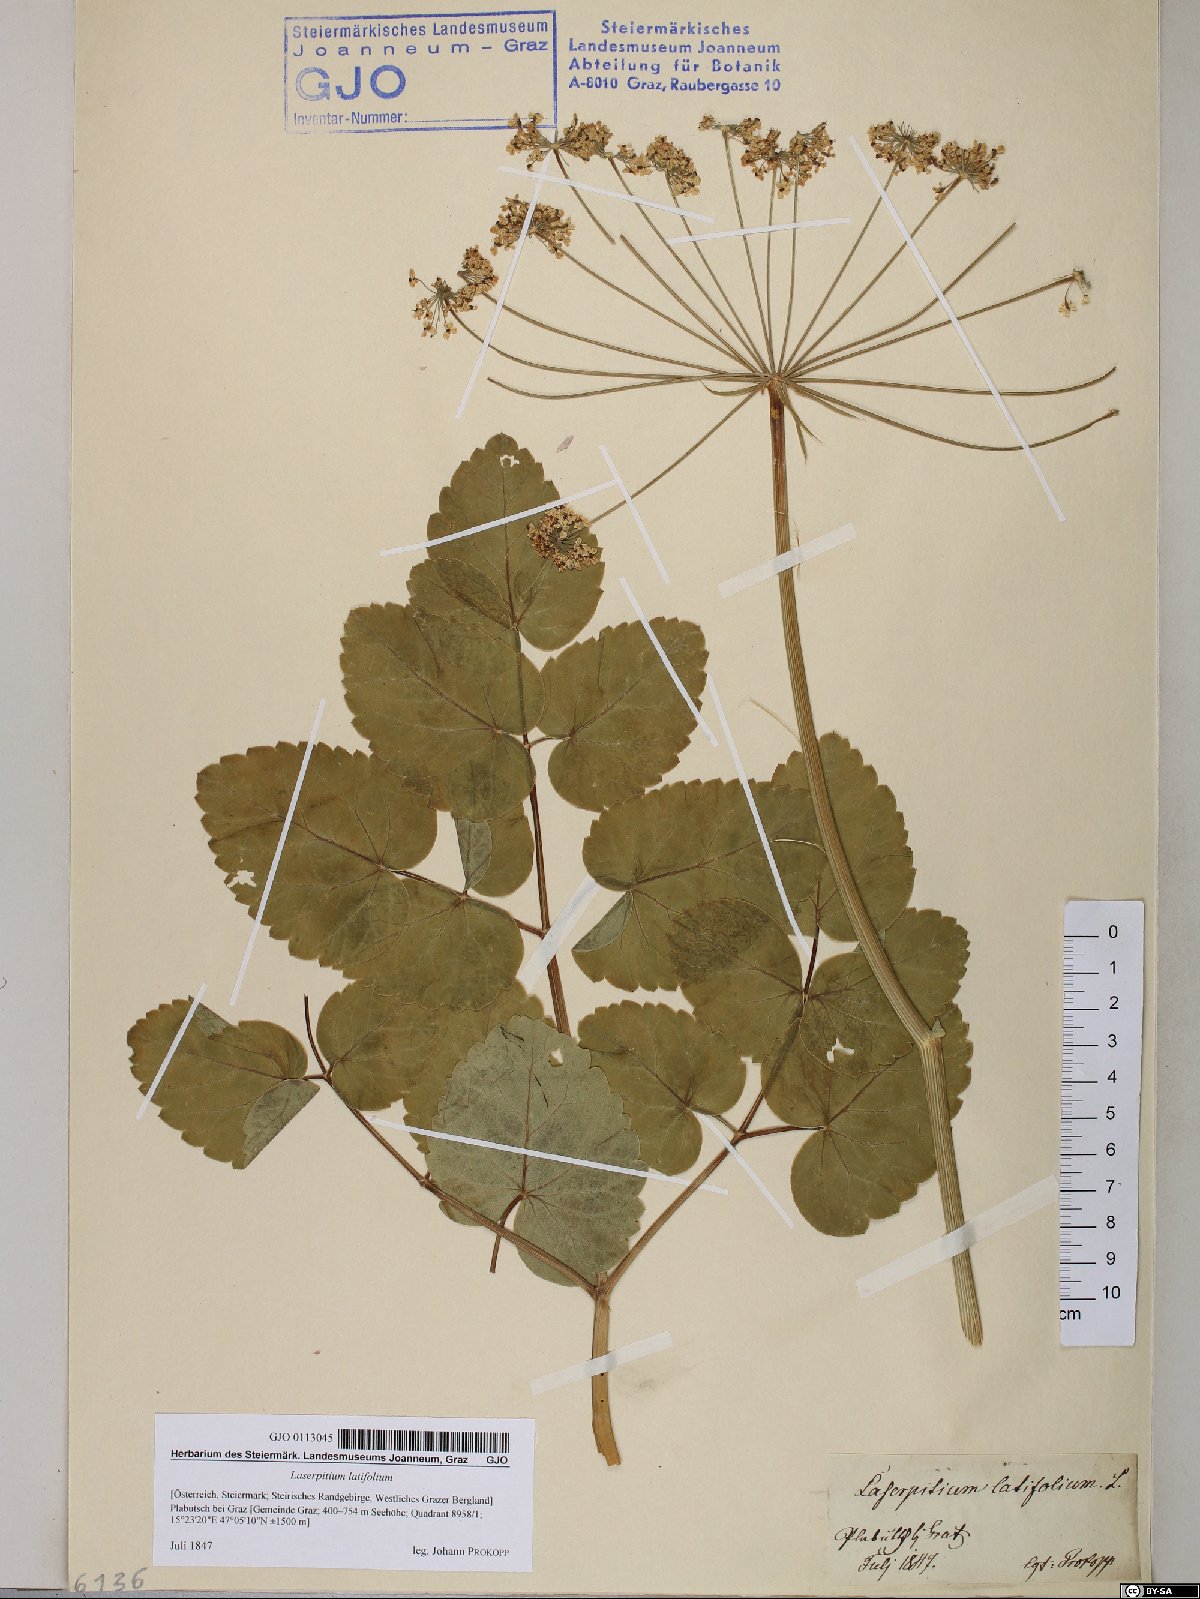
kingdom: Plantae
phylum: Tracheophyta
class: Magnoliopsida
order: Apiales
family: Apiaceae
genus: Laserpitium
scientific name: Laserpitium latifolium
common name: Broadleaf sermountain
